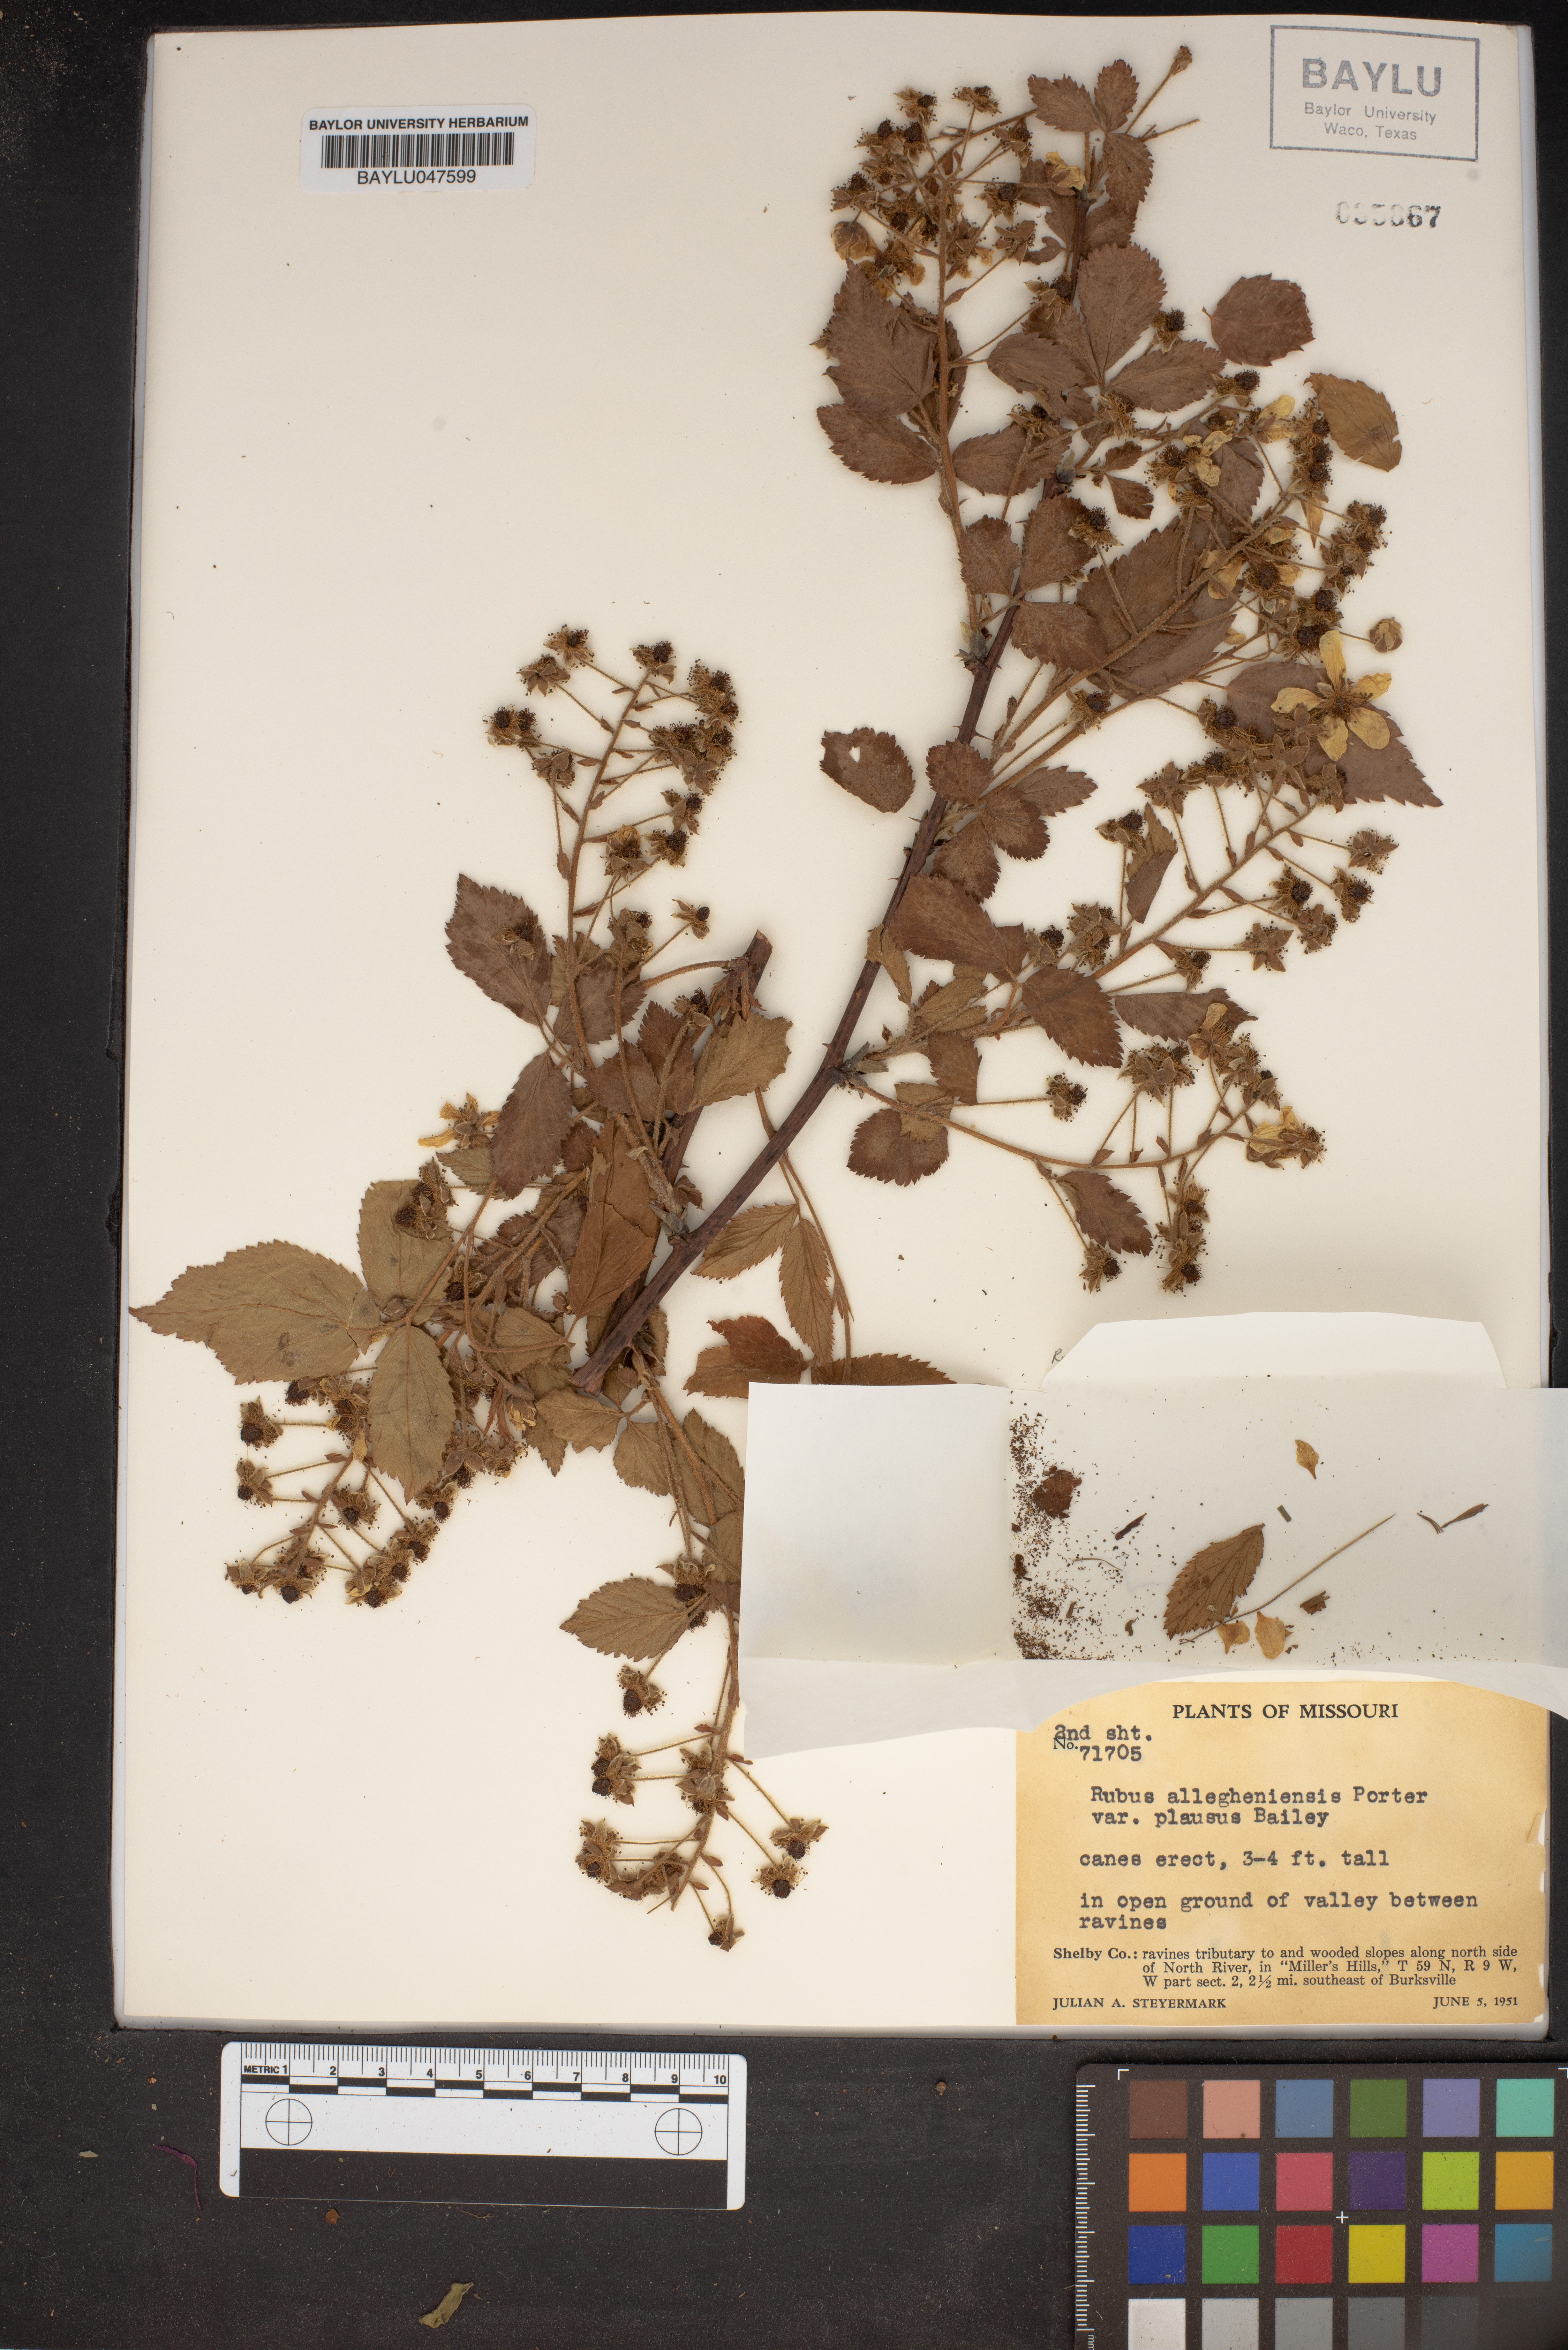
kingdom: Plantae
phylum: Tracheophyta
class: Magnoliopsida
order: Rosales
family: Rosaceae
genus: Rubus
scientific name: Rubus allegheniensis
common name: Allegheny blackberry
